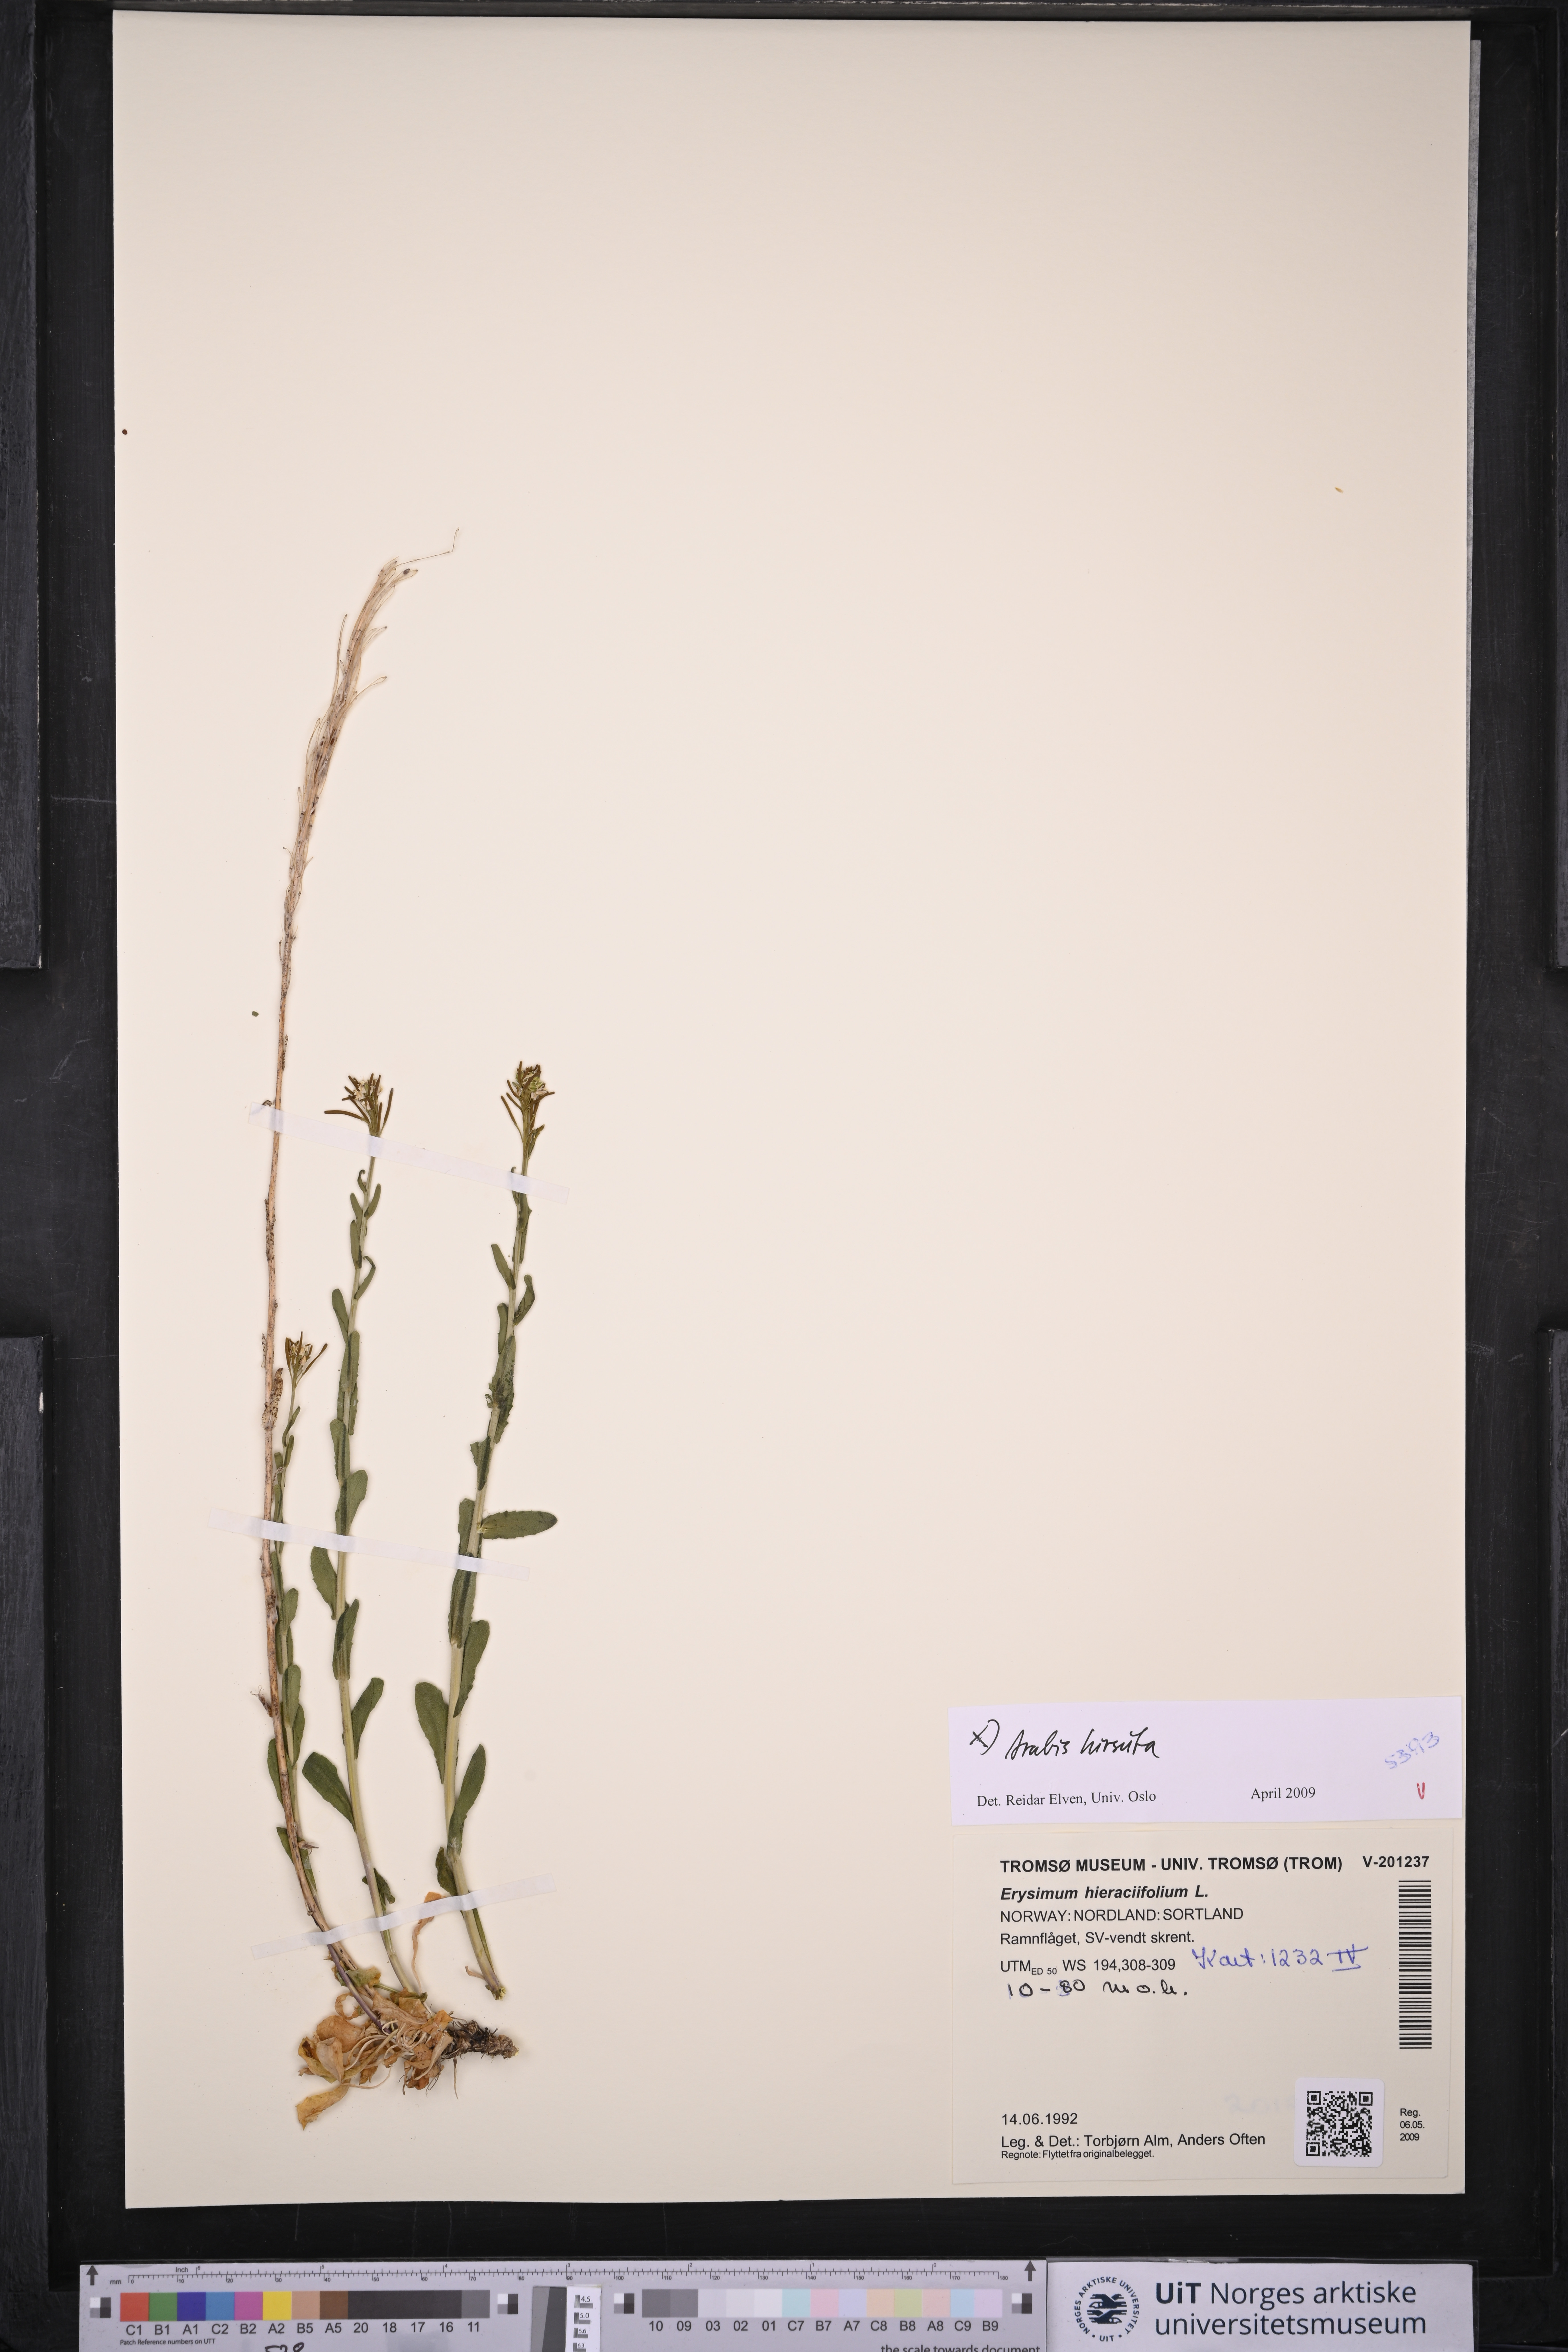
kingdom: Plantae
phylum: Tracheophyta
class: Magnoliopsida
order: Brassicales
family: Brassicaceae
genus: Arabis
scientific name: Arabis hirsuta
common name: Hairy rock-cress
